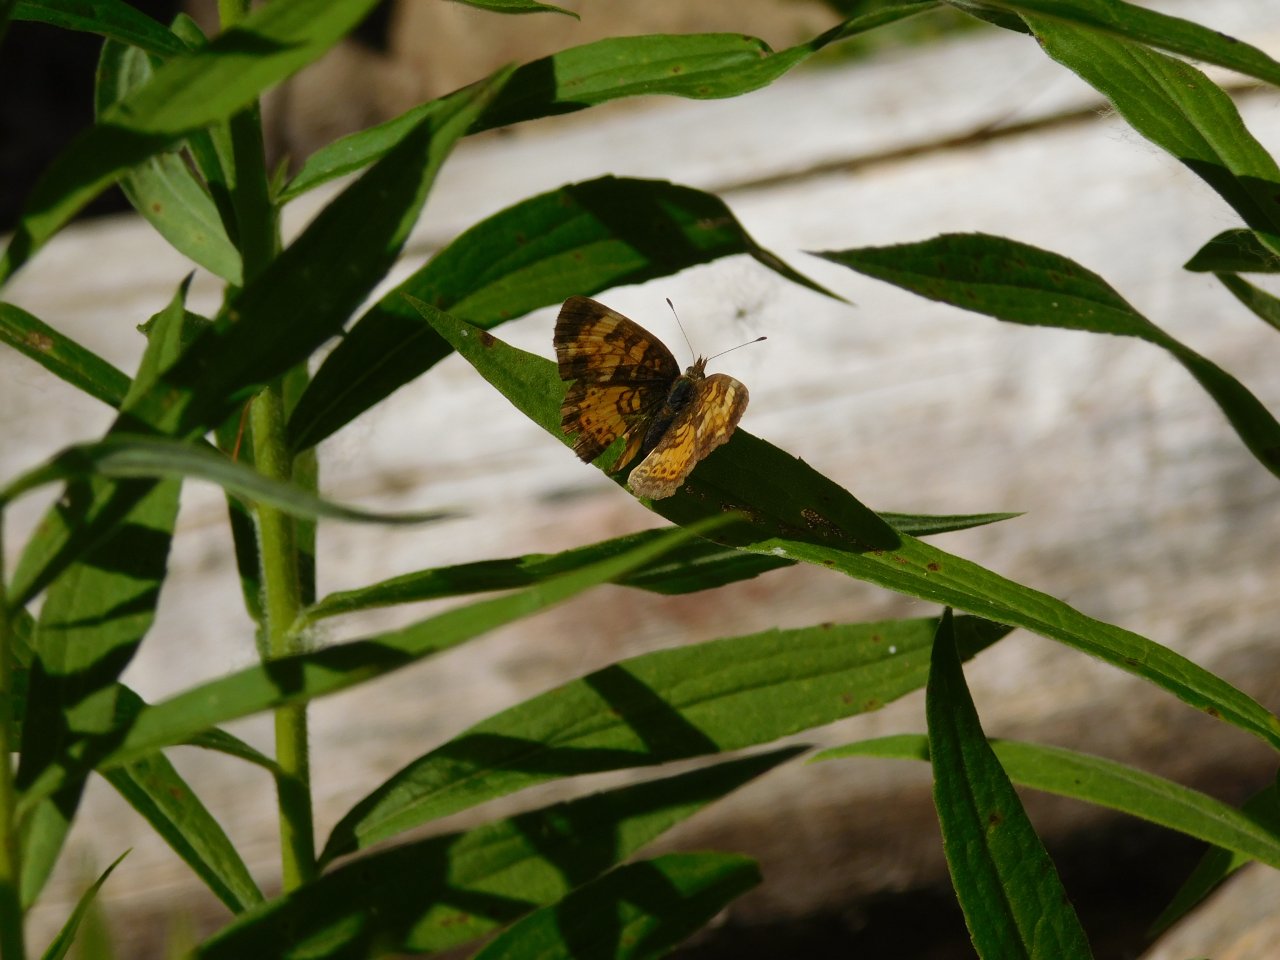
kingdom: Animalia
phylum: Arthropoda
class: Insecta
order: Lepidoptera
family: Nymphalidae
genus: Phyciodes
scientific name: Phyciodes tharos
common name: Pearl Crescent
